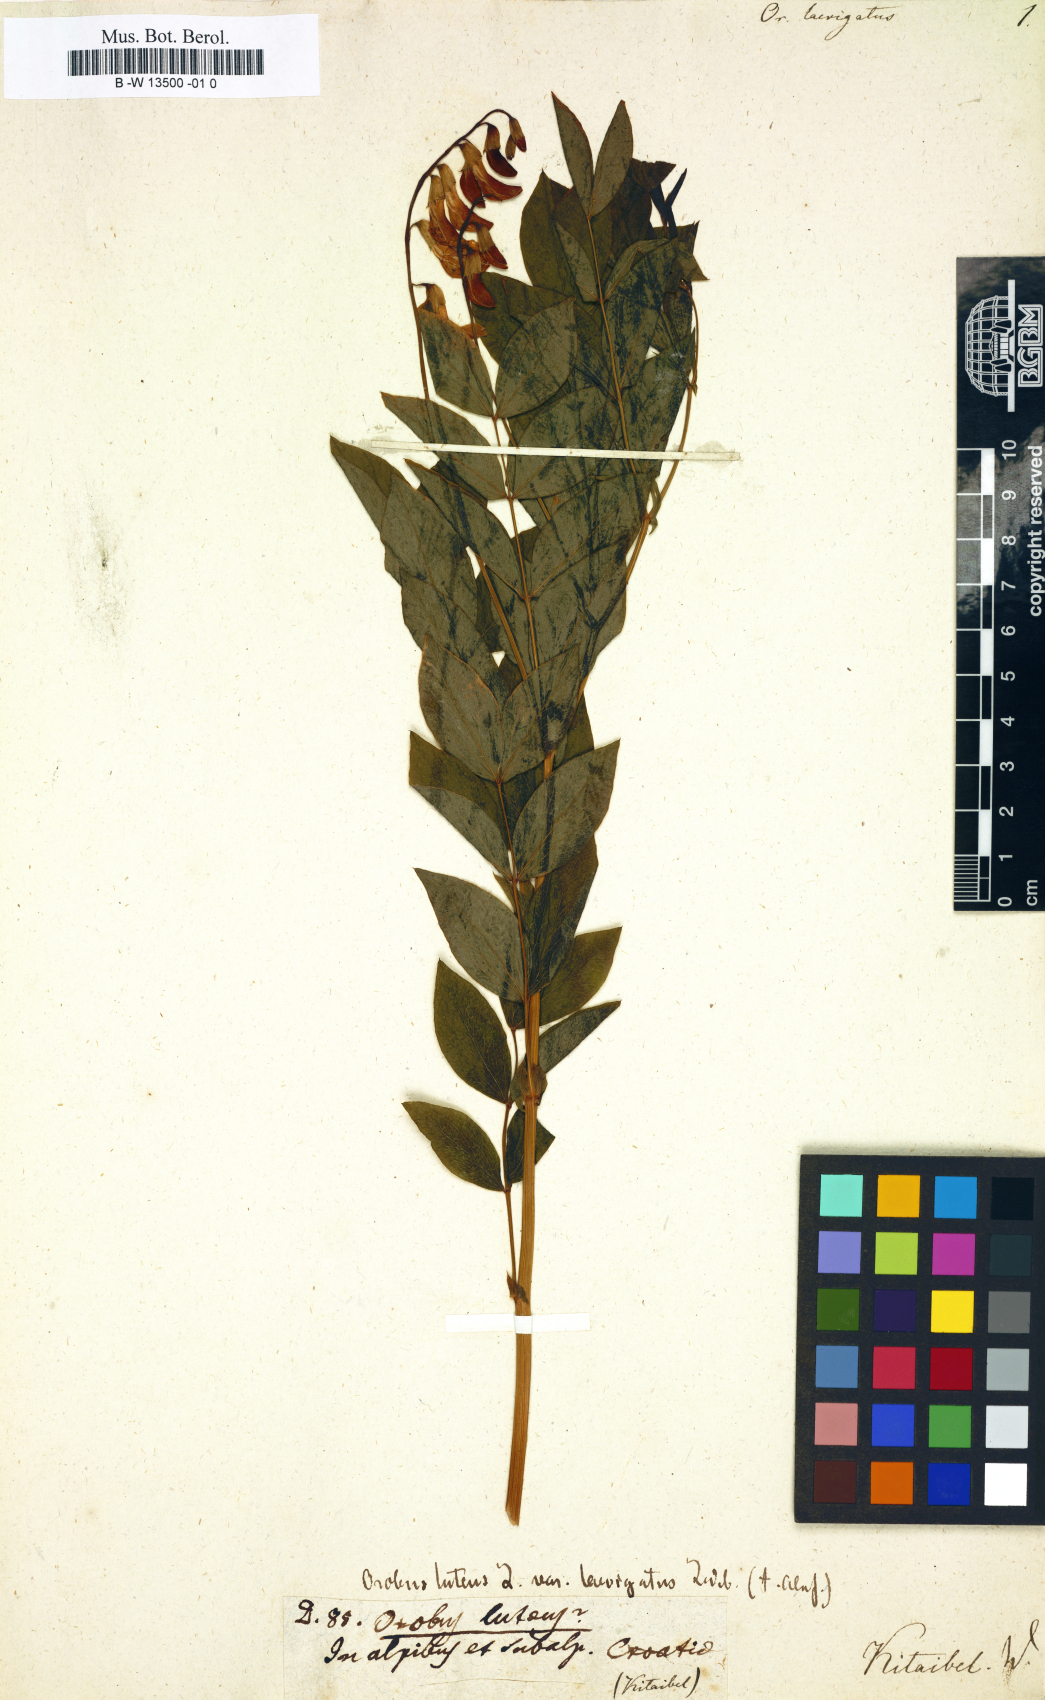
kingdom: Plantae
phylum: Tracheophyta
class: Magnoliopsida
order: Fabales
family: Fabaceae
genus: Lathyrus
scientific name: Lathyrus laevigatus
